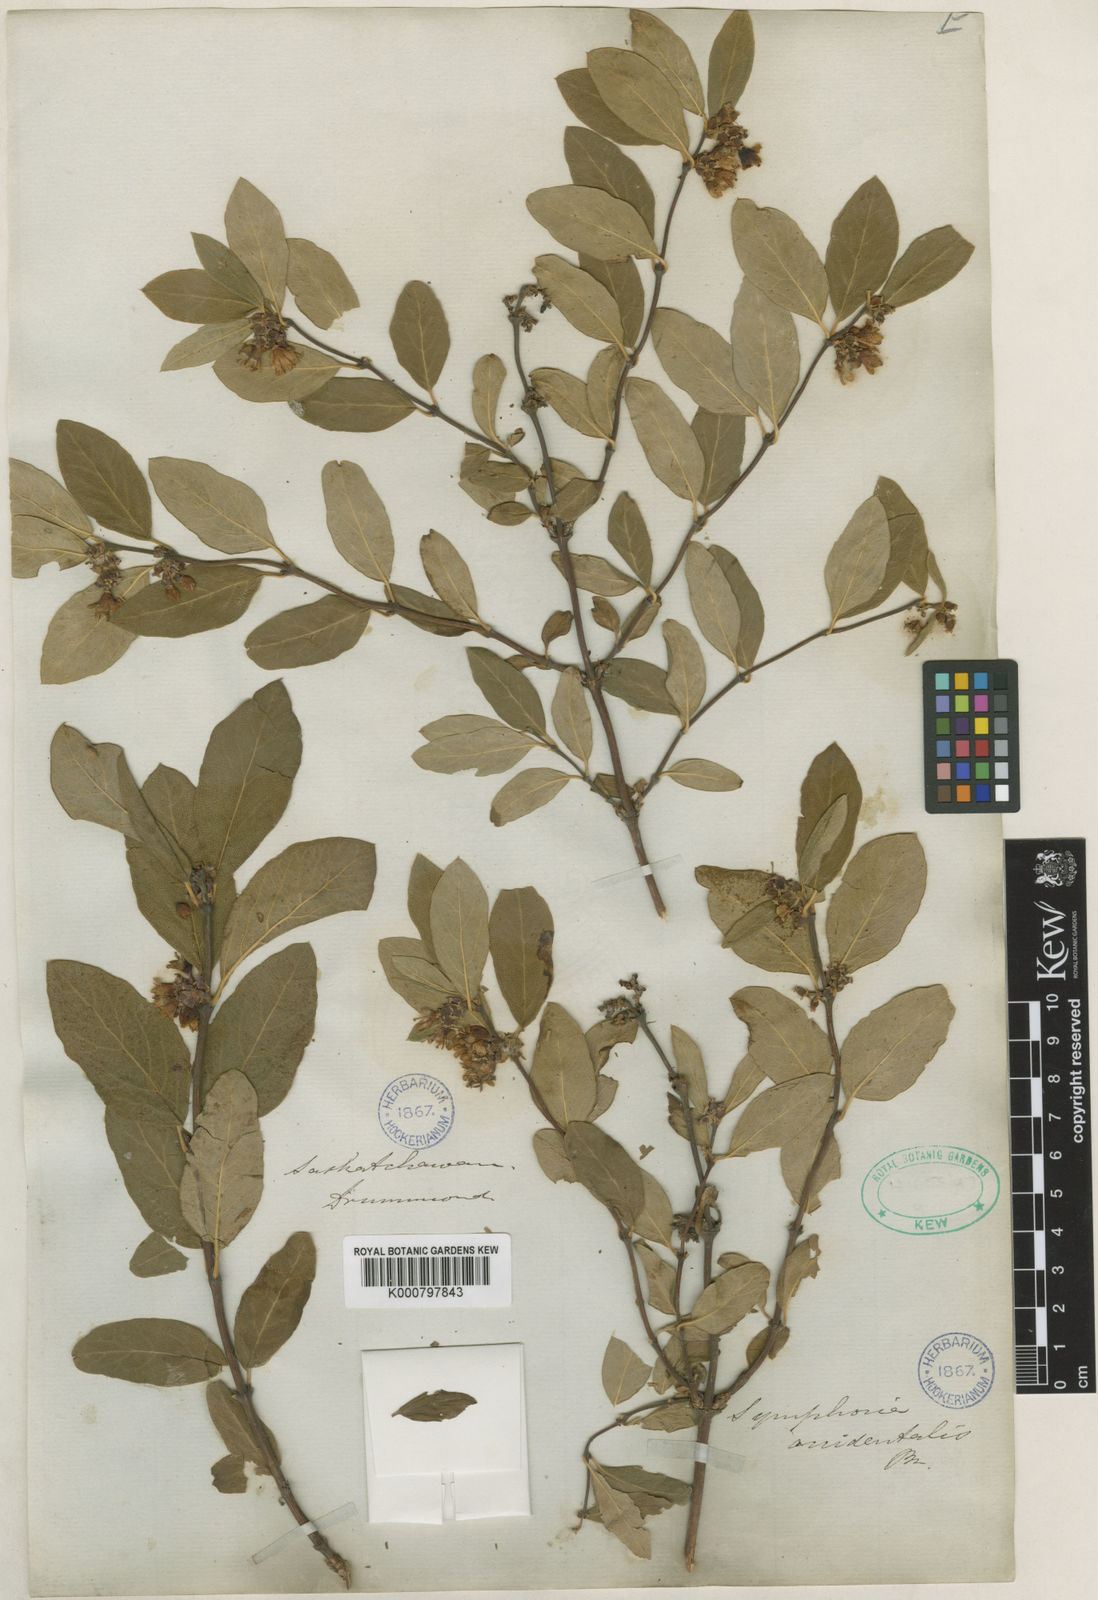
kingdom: Plantae
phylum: Tracheophyta
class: Magnoliopsida
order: Dipsacales
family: Caprifoliaceae
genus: Symphoricarpos
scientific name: Symphoricarpos albus
